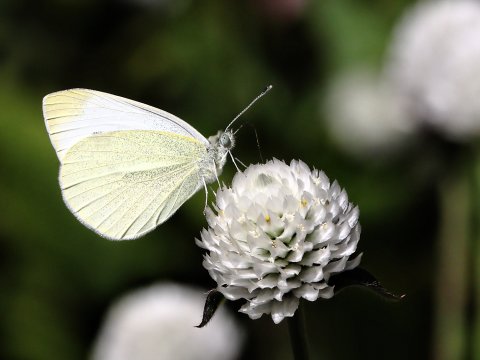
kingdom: Animalia
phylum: Arthropoda
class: Insecta
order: Lepidoptera
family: Pieridae
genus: Pieris
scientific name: Pieris rapae
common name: Cabbage White
